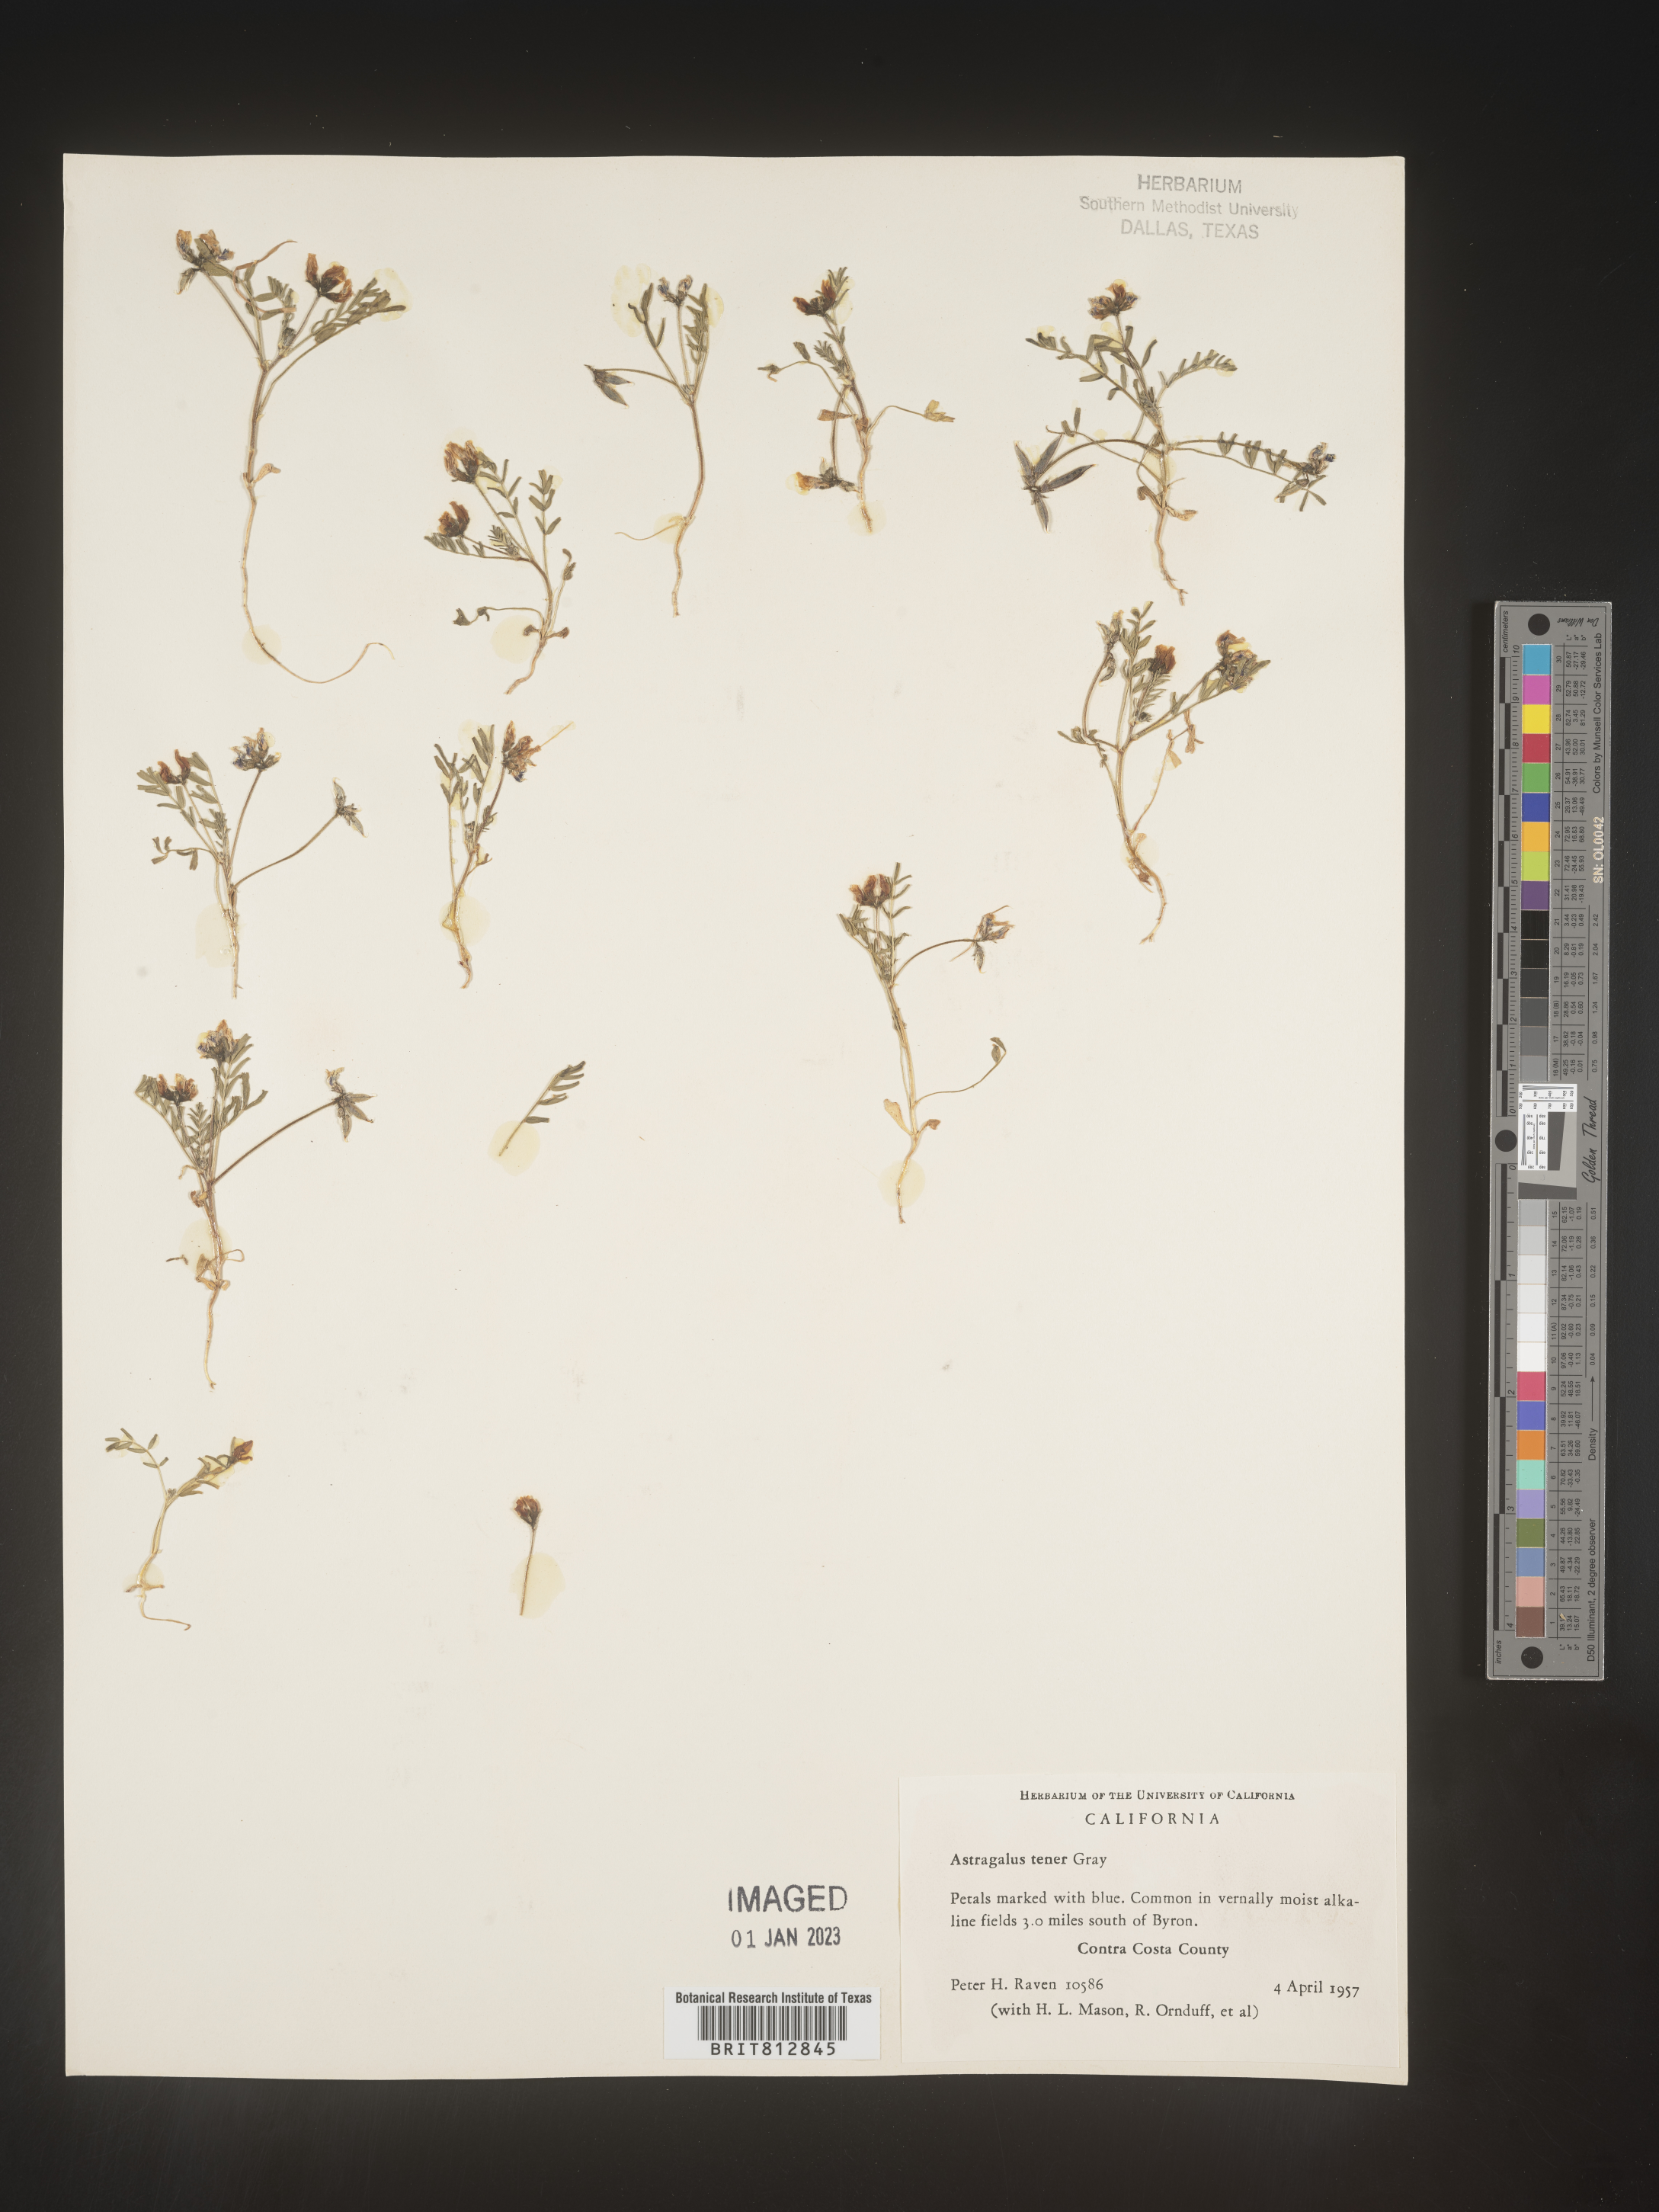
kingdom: Plantae
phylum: Tracheophyta
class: Magnoliopsida
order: Fabales
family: Fabaceae
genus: Astragalus
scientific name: Astragalus
